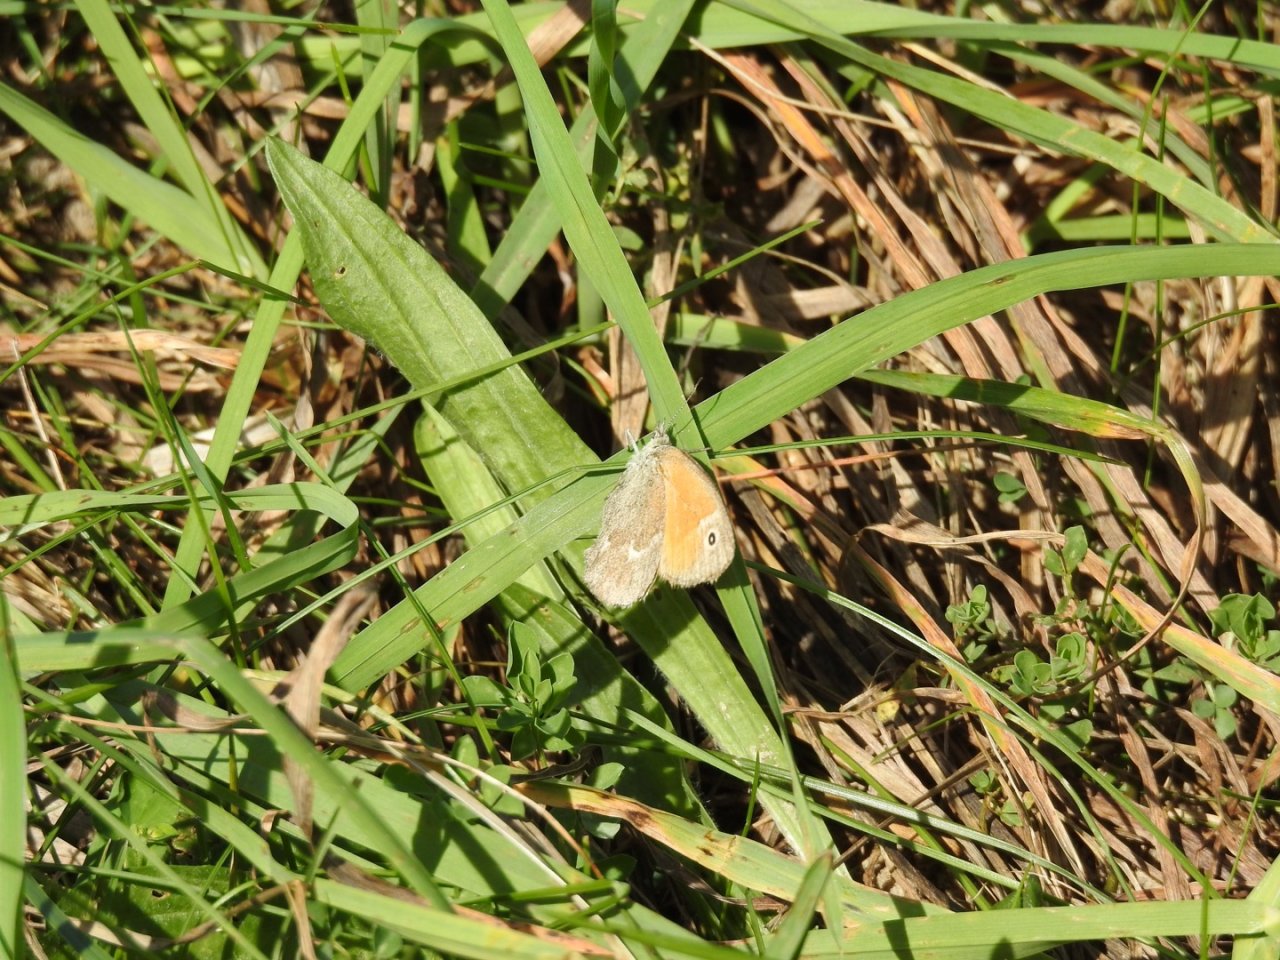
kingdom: Animalia
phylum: Arthropoda
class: Insecta
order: Lepidoptera
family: Nymphalidae
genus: Coenonympha
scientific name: Coenonympha tullia
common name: Large Heath
